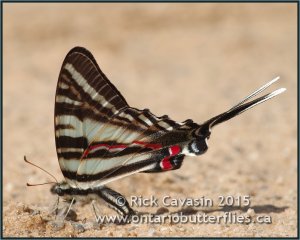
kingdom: Animalia
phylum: Arthropoda
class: Insecta
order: Lepidoptera
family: Papilionidae
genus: Protographium
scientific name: Protographium marcellus
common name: Zebra Swallowtail
